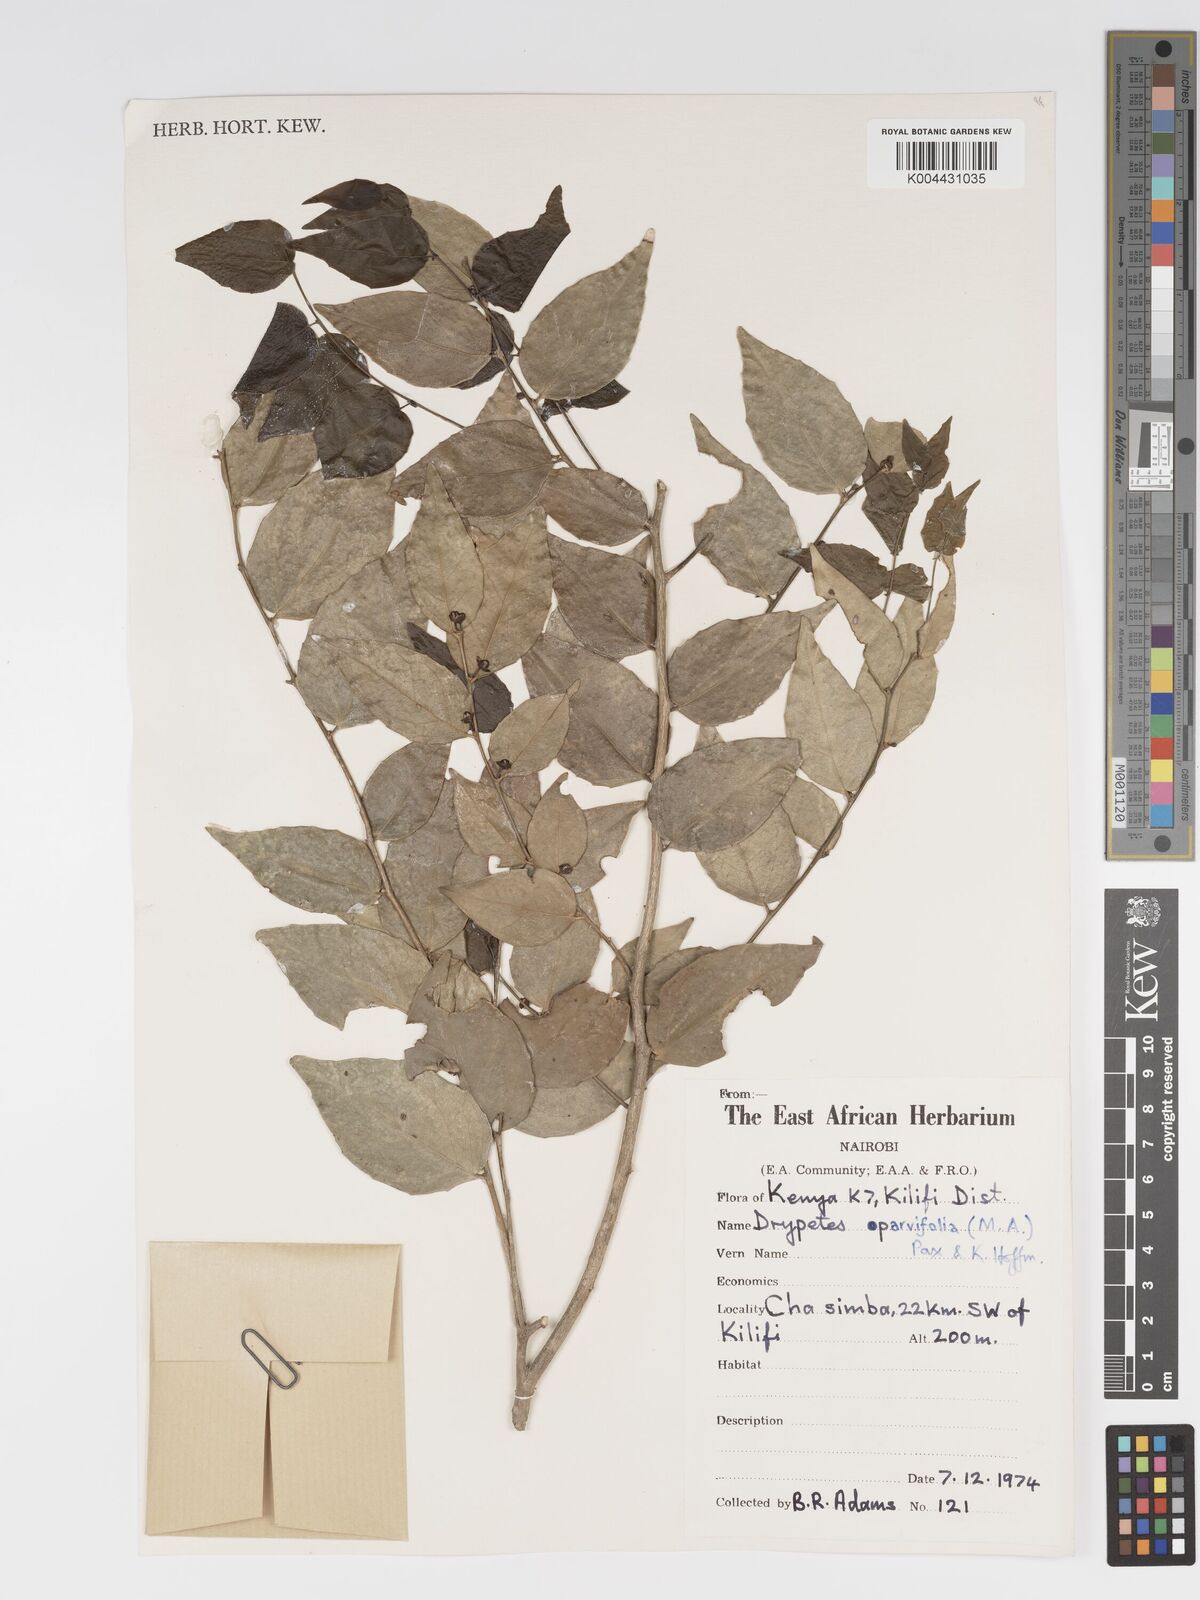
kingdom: Plantae
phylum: Tracheophyta
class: Magnoliopsida
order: Malpighiales
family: Putranjivaceae
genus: Drypetes
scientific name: Drypetes parvifolia
